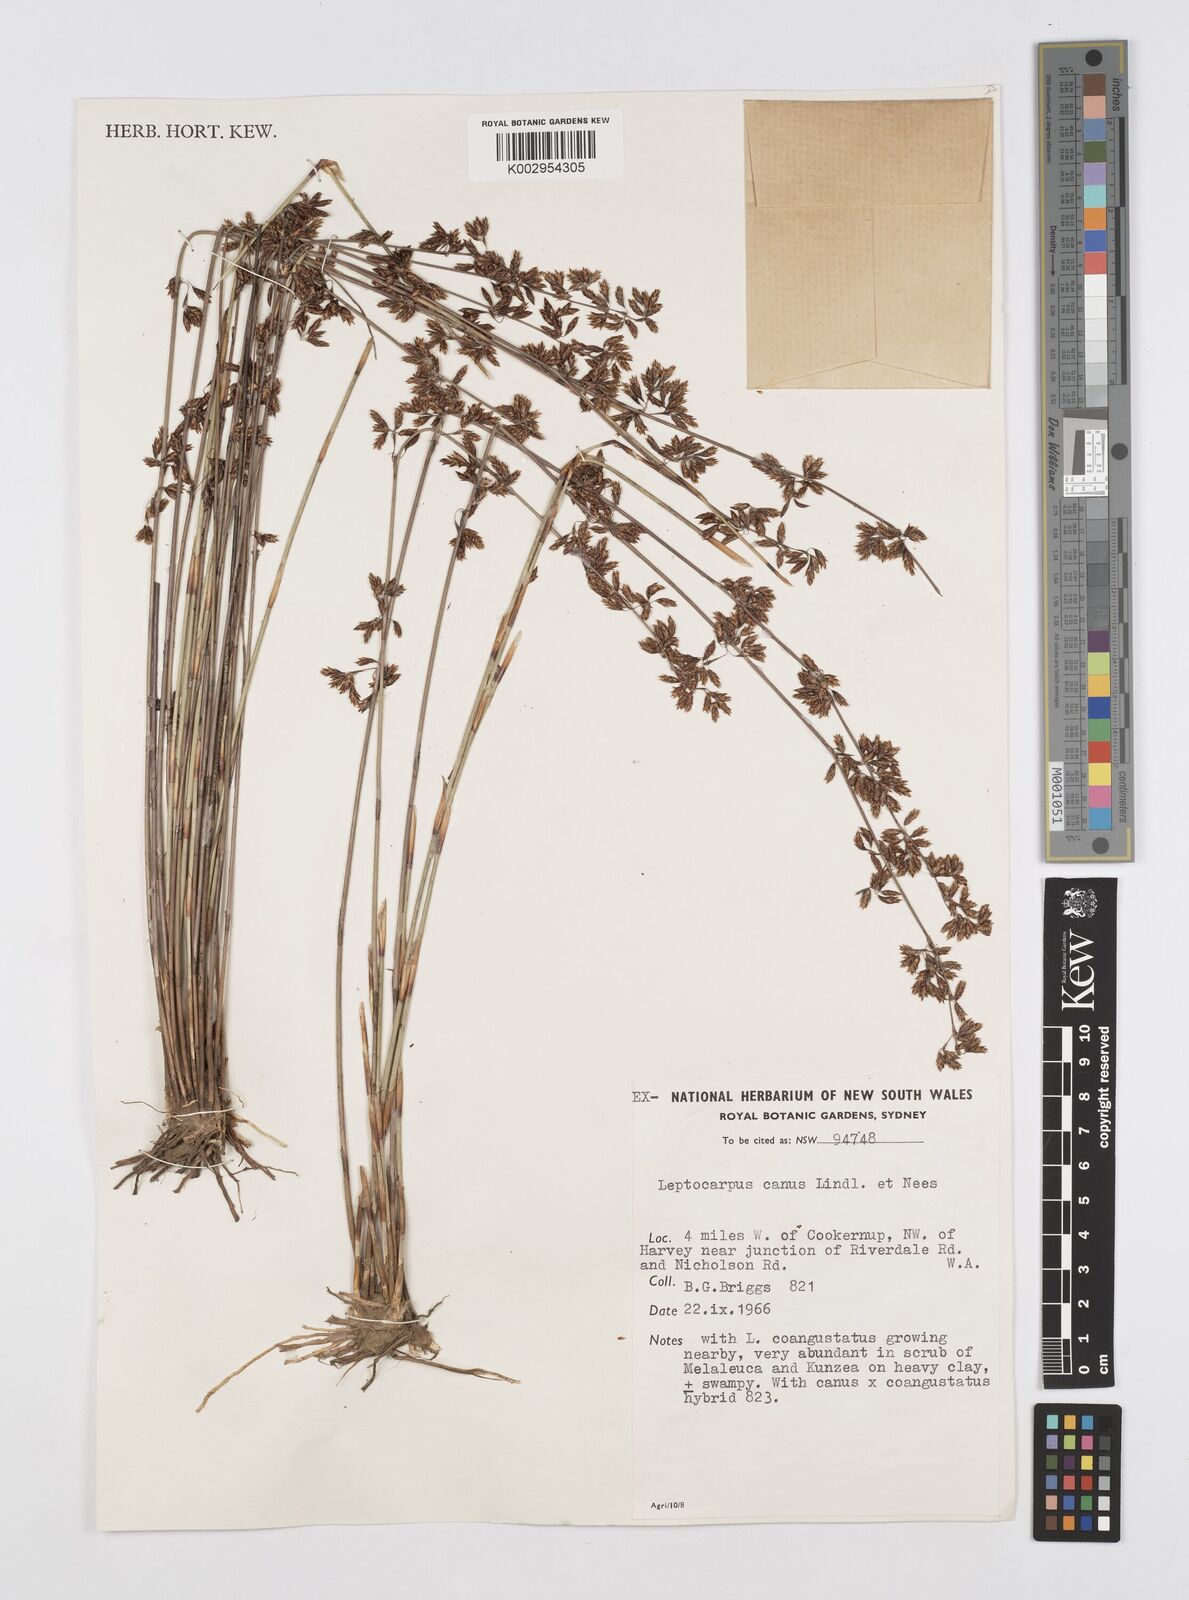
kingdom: Plantae
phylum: Tracheophyta
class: Liliopsida
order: Poales
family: Restionaceae
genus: Leptocarpus
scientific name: Leptocarpus canus
